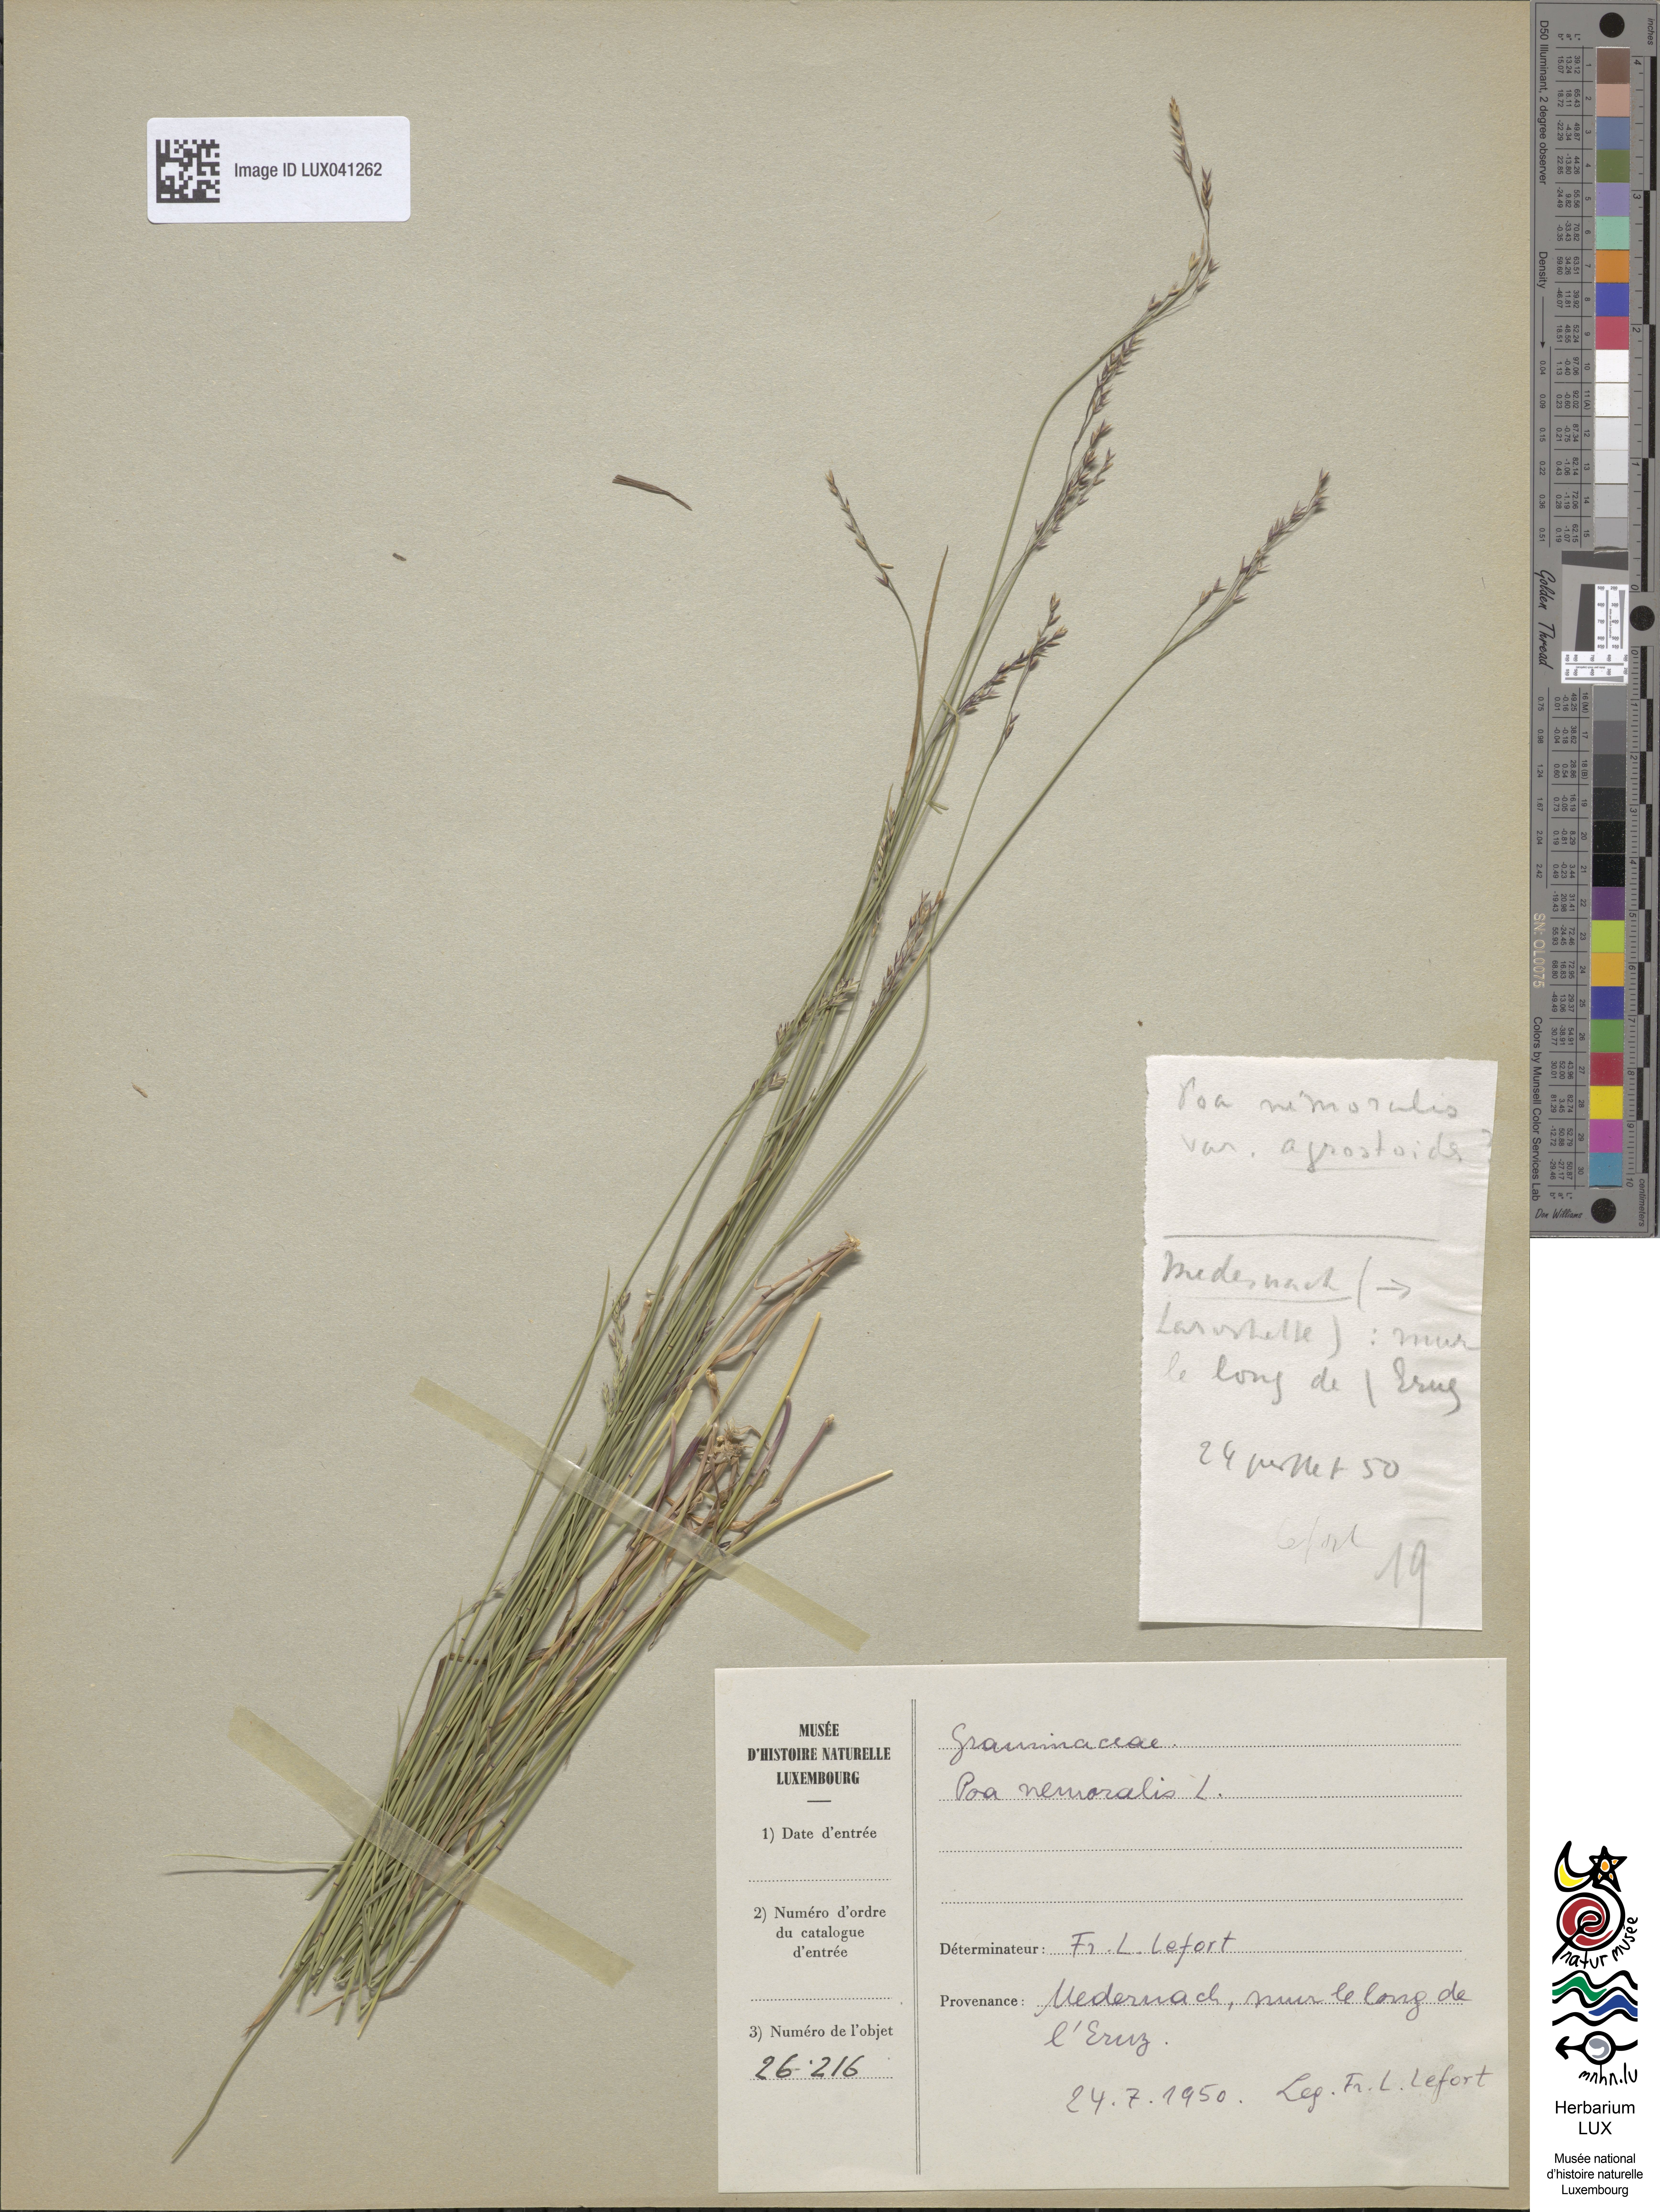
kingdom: Plantae
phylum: Tracheophyta
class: Liliopsida
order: Poales
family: Poaceae
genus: Poa
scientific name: Poa nemoralis
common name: Wood bluegrass
